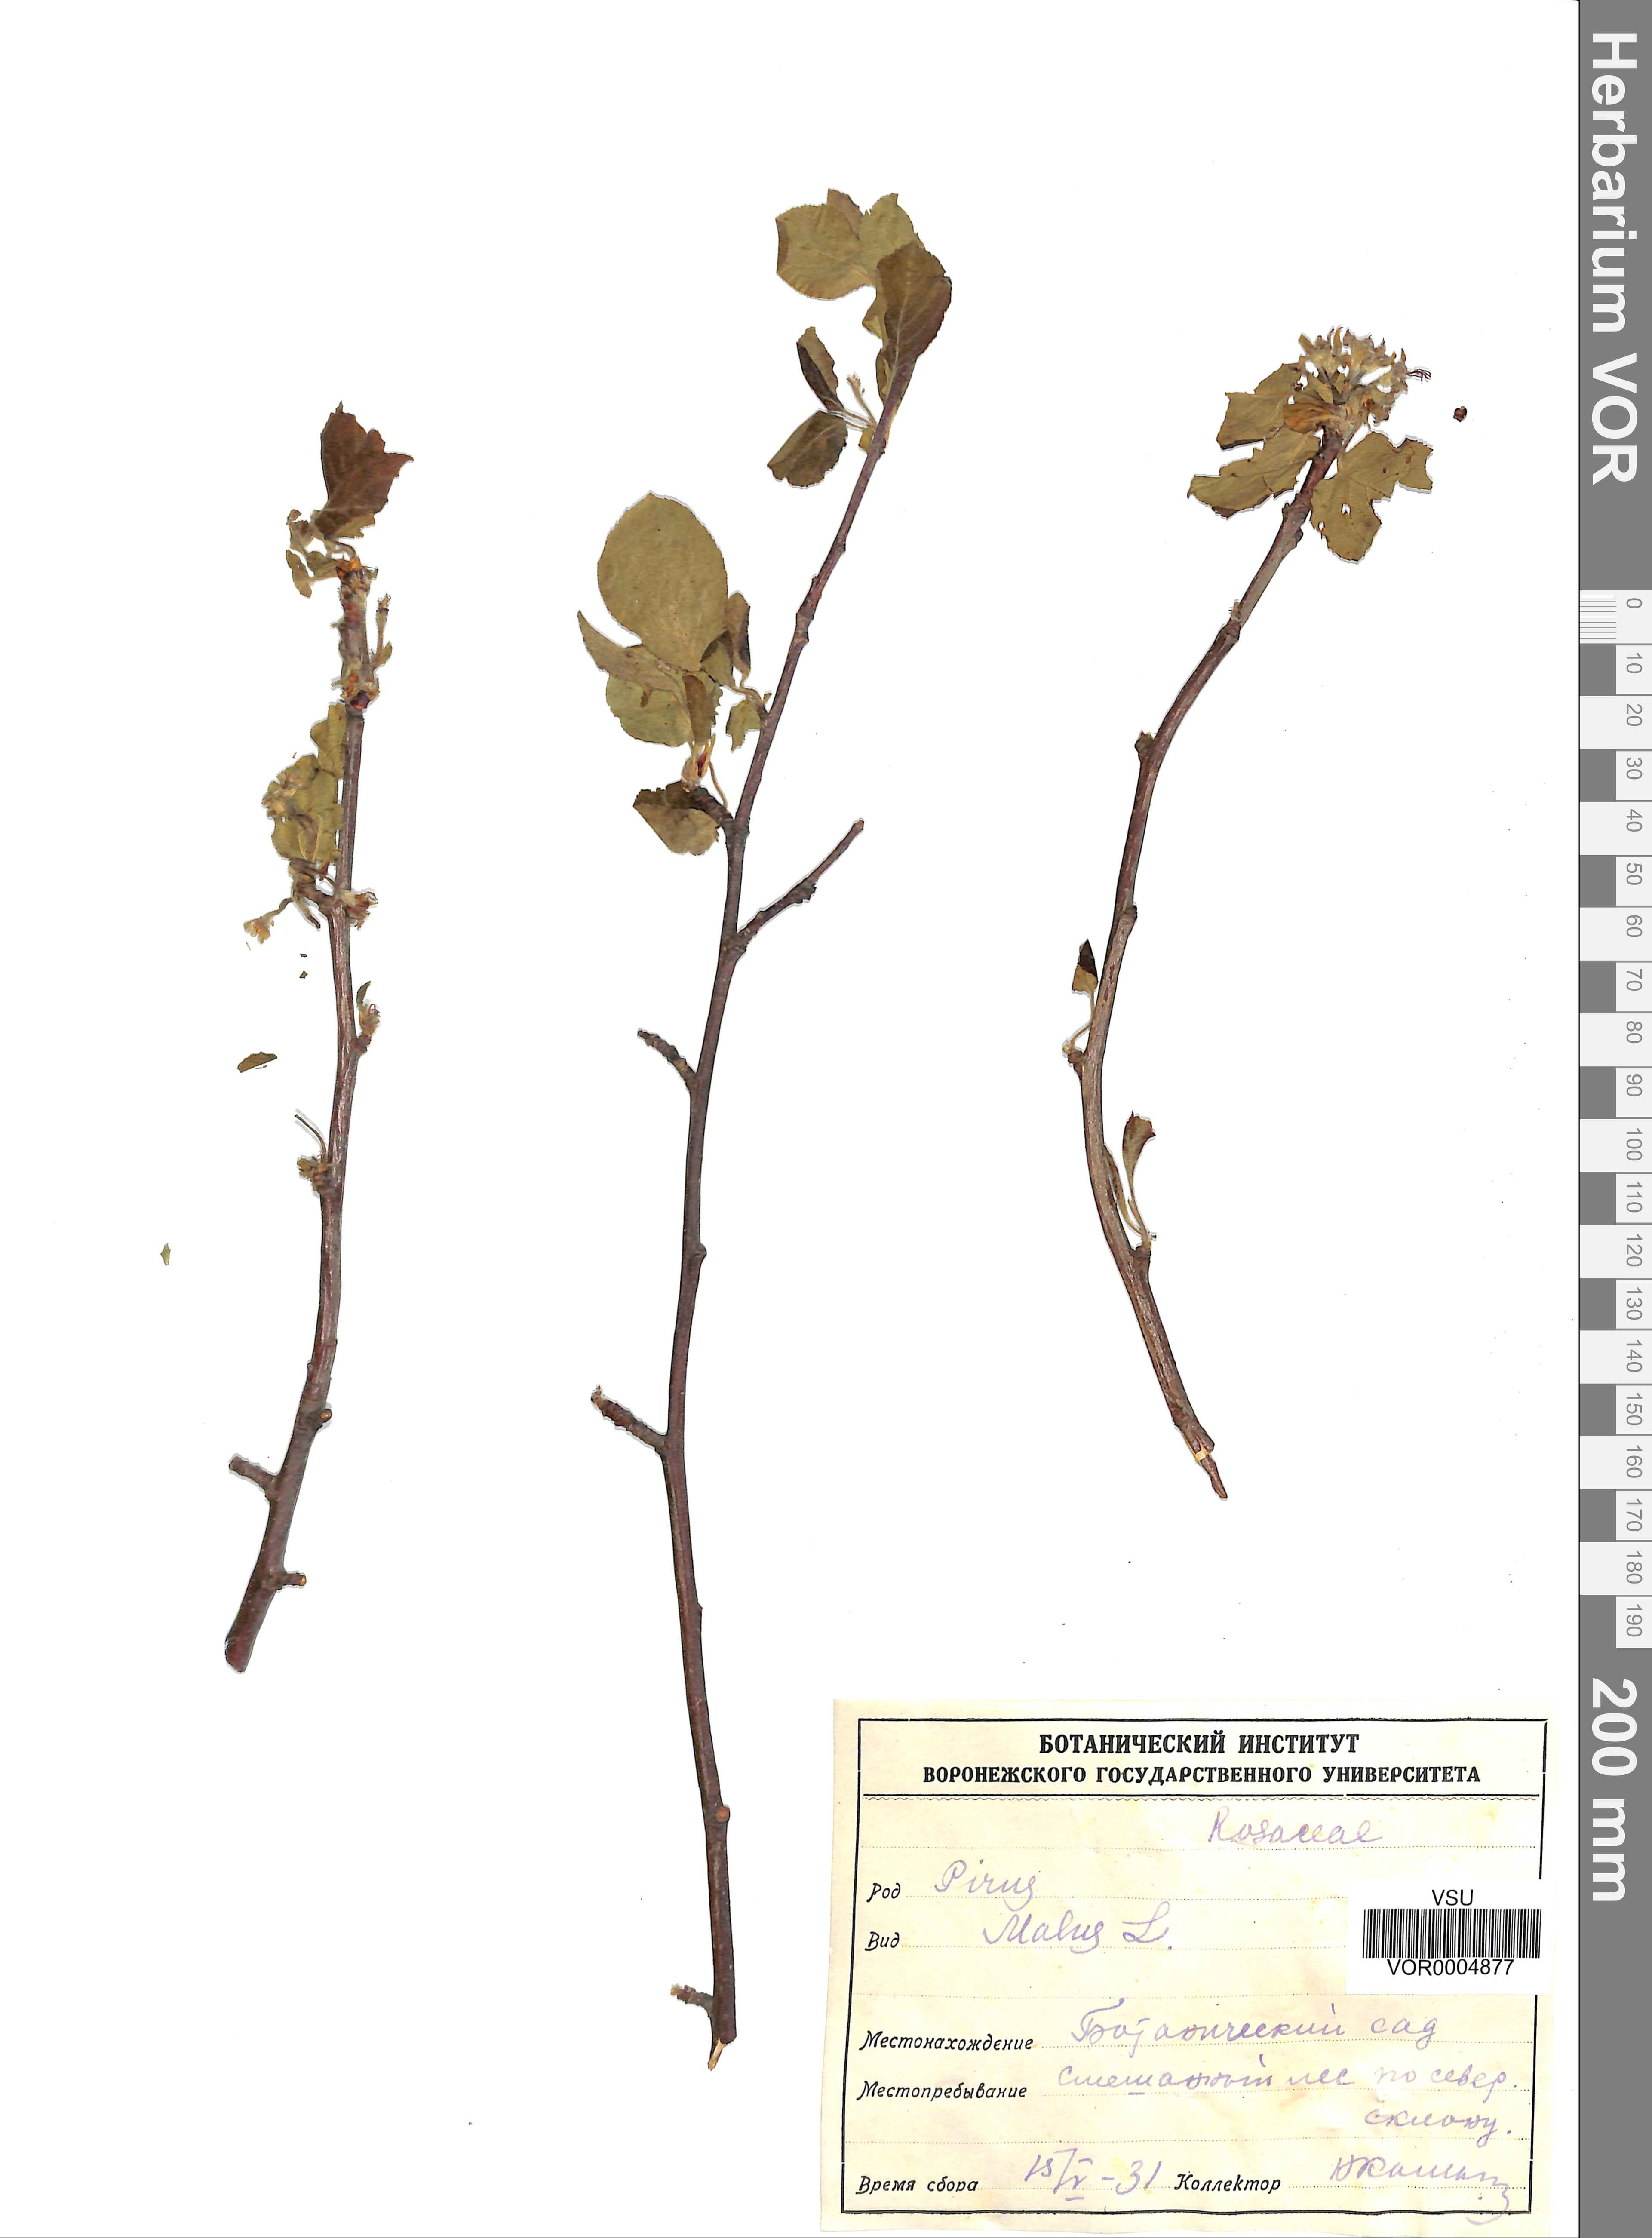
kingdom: Plantae
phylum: Tracheophyta
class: Magnoliopsida
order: Rosales
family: Rosaceae
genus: Malus
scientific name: Malus domestica
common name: Apple
